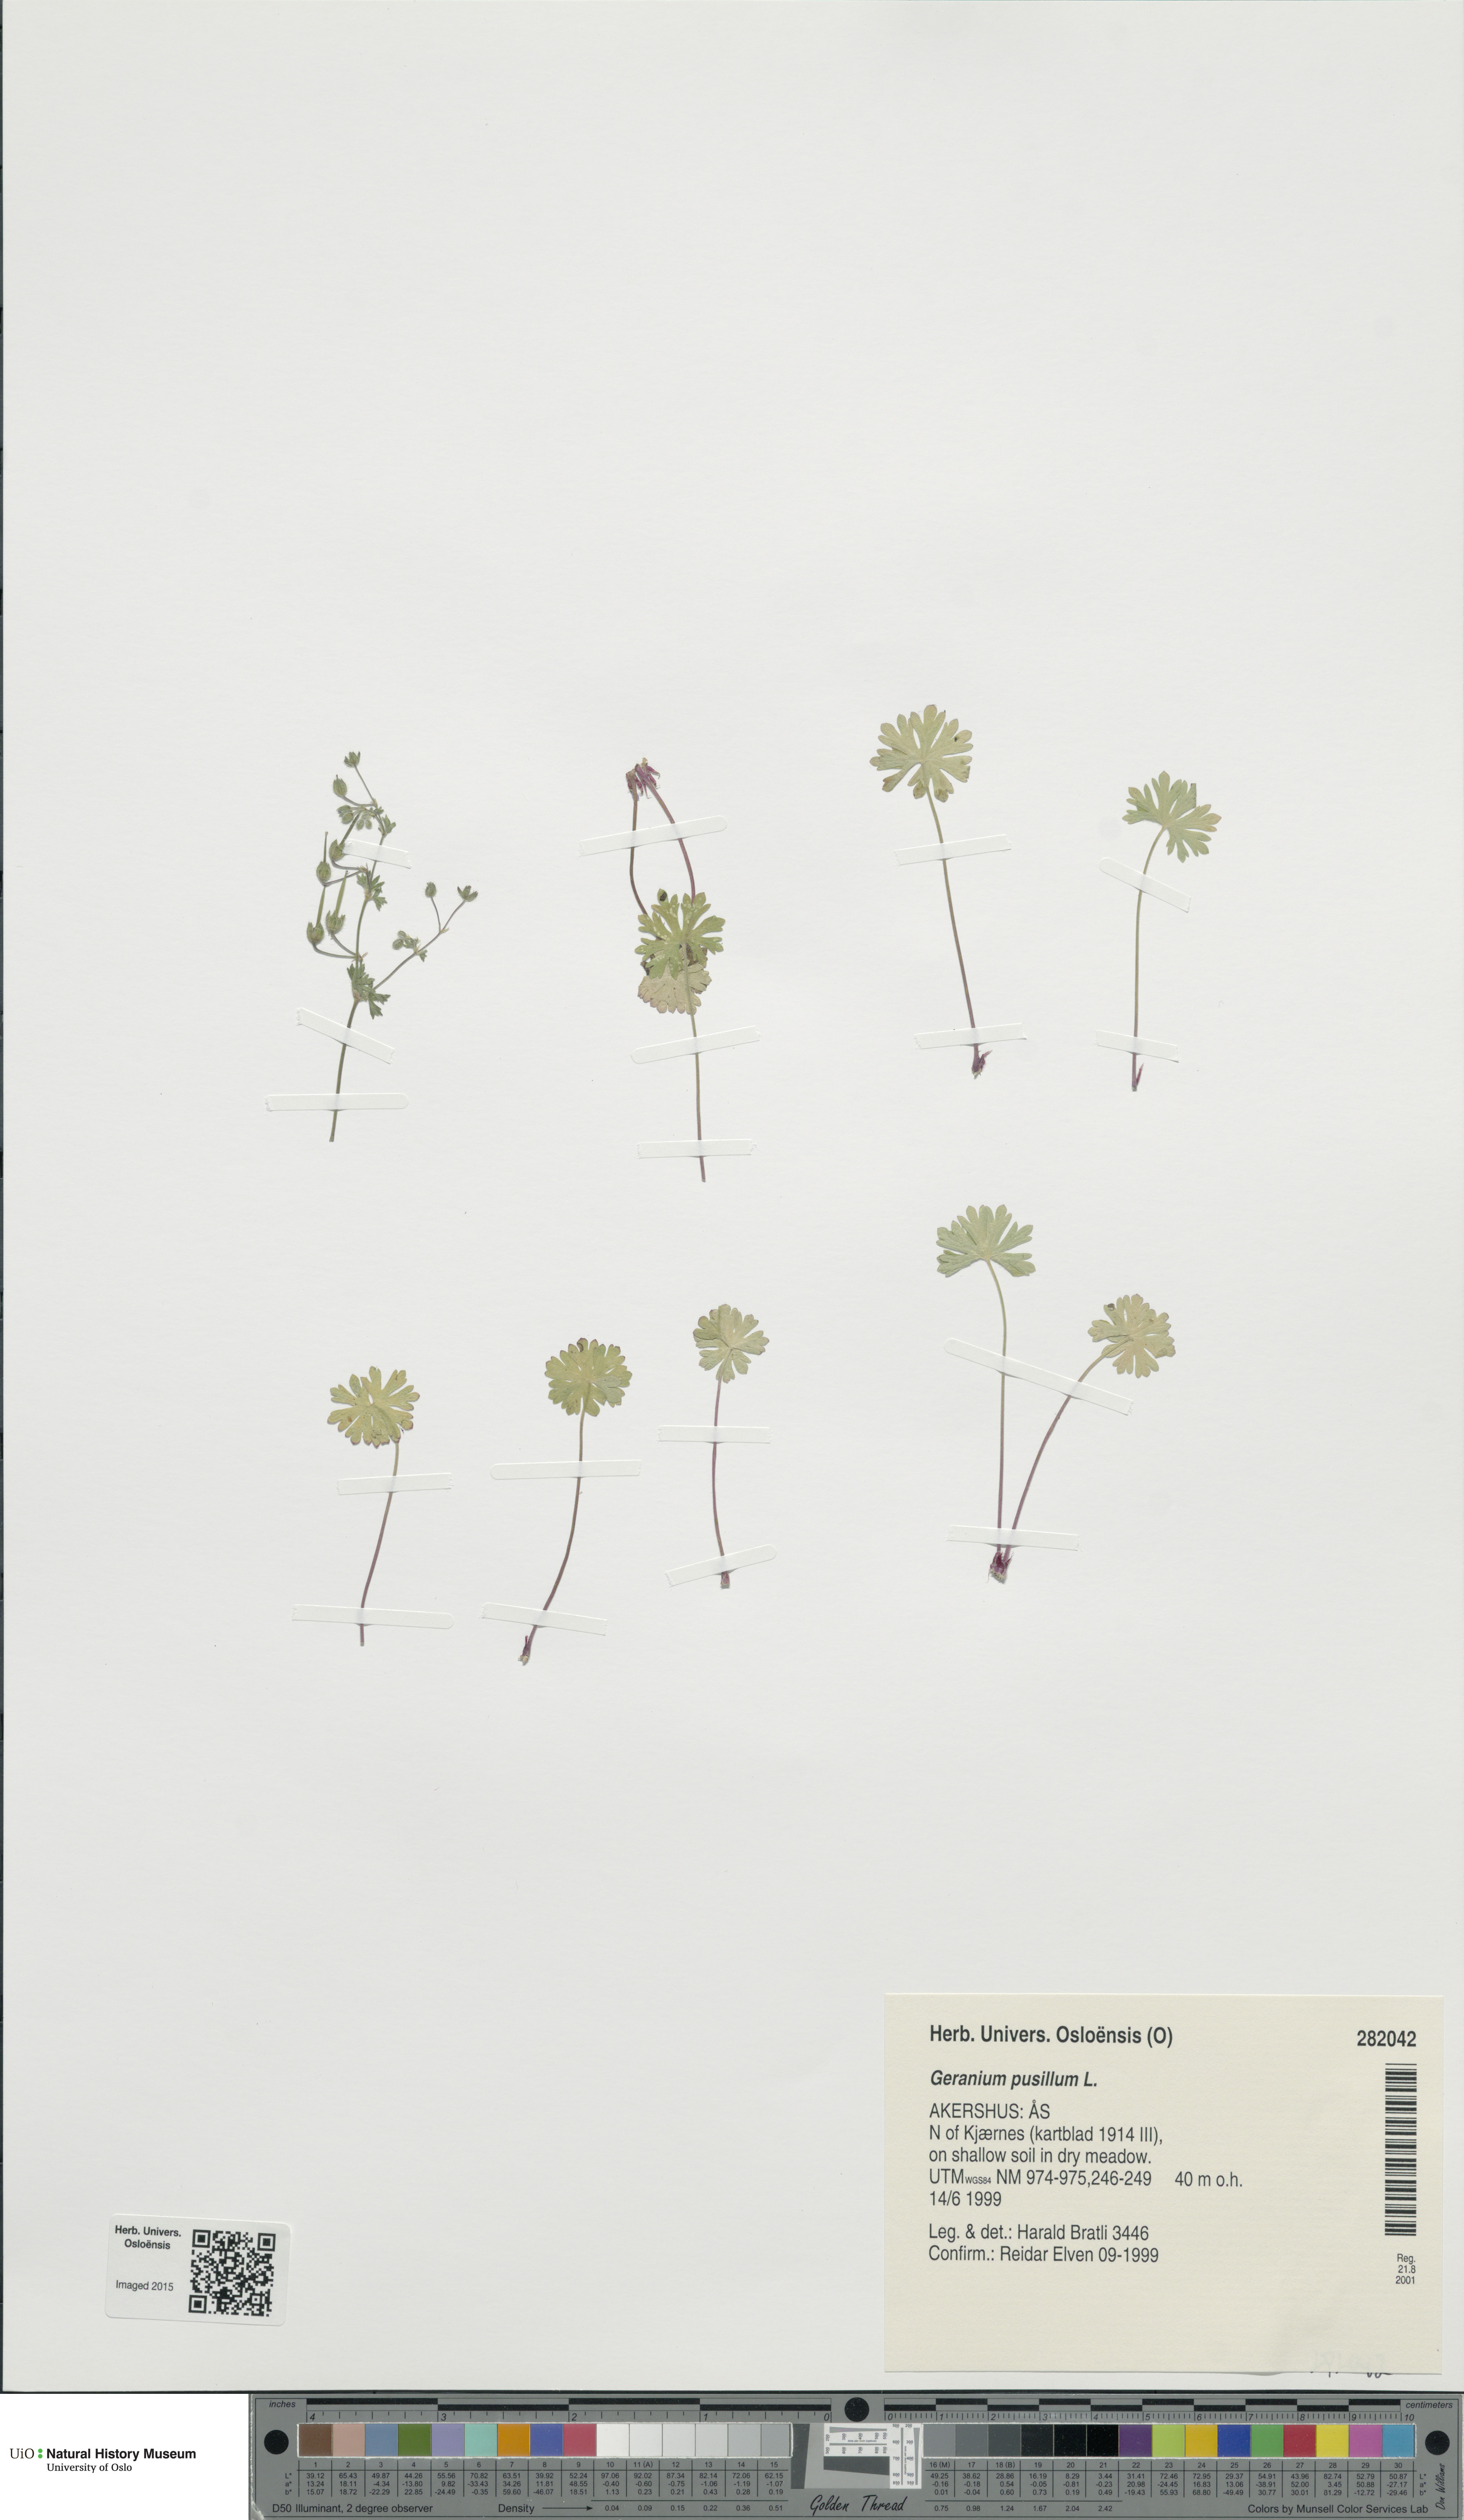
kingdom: Plantae
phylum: Tracheophyta
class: Magnoliopsida
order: Geraniales
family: Geraniaceae
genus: Geranium
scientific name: Geranium pusillum
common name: Small geranium
